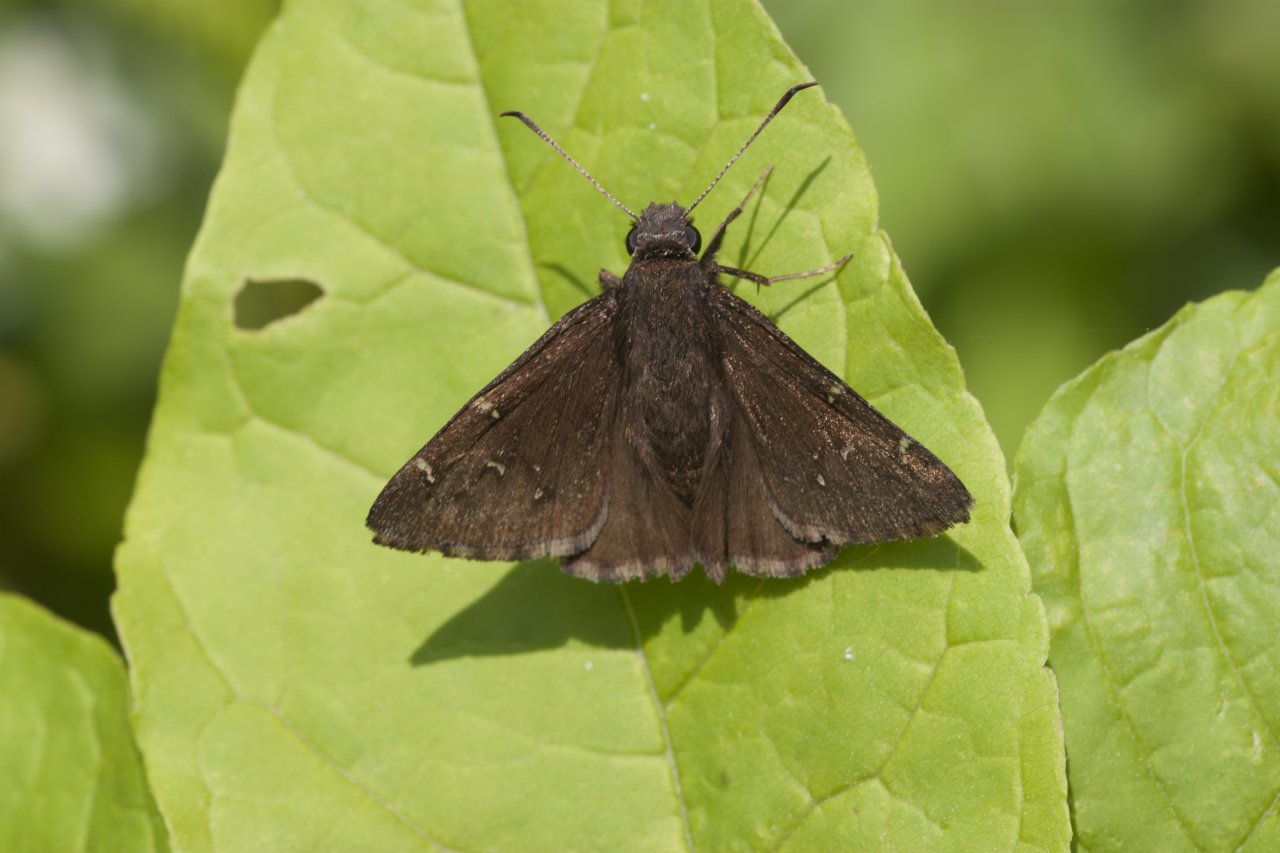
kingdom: Animalia
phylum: Arthropoda
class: Insecta
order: Lepidoptera
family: Hesperiidae
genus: Autochton
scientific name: Autochton
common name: Northern Cloudywing
